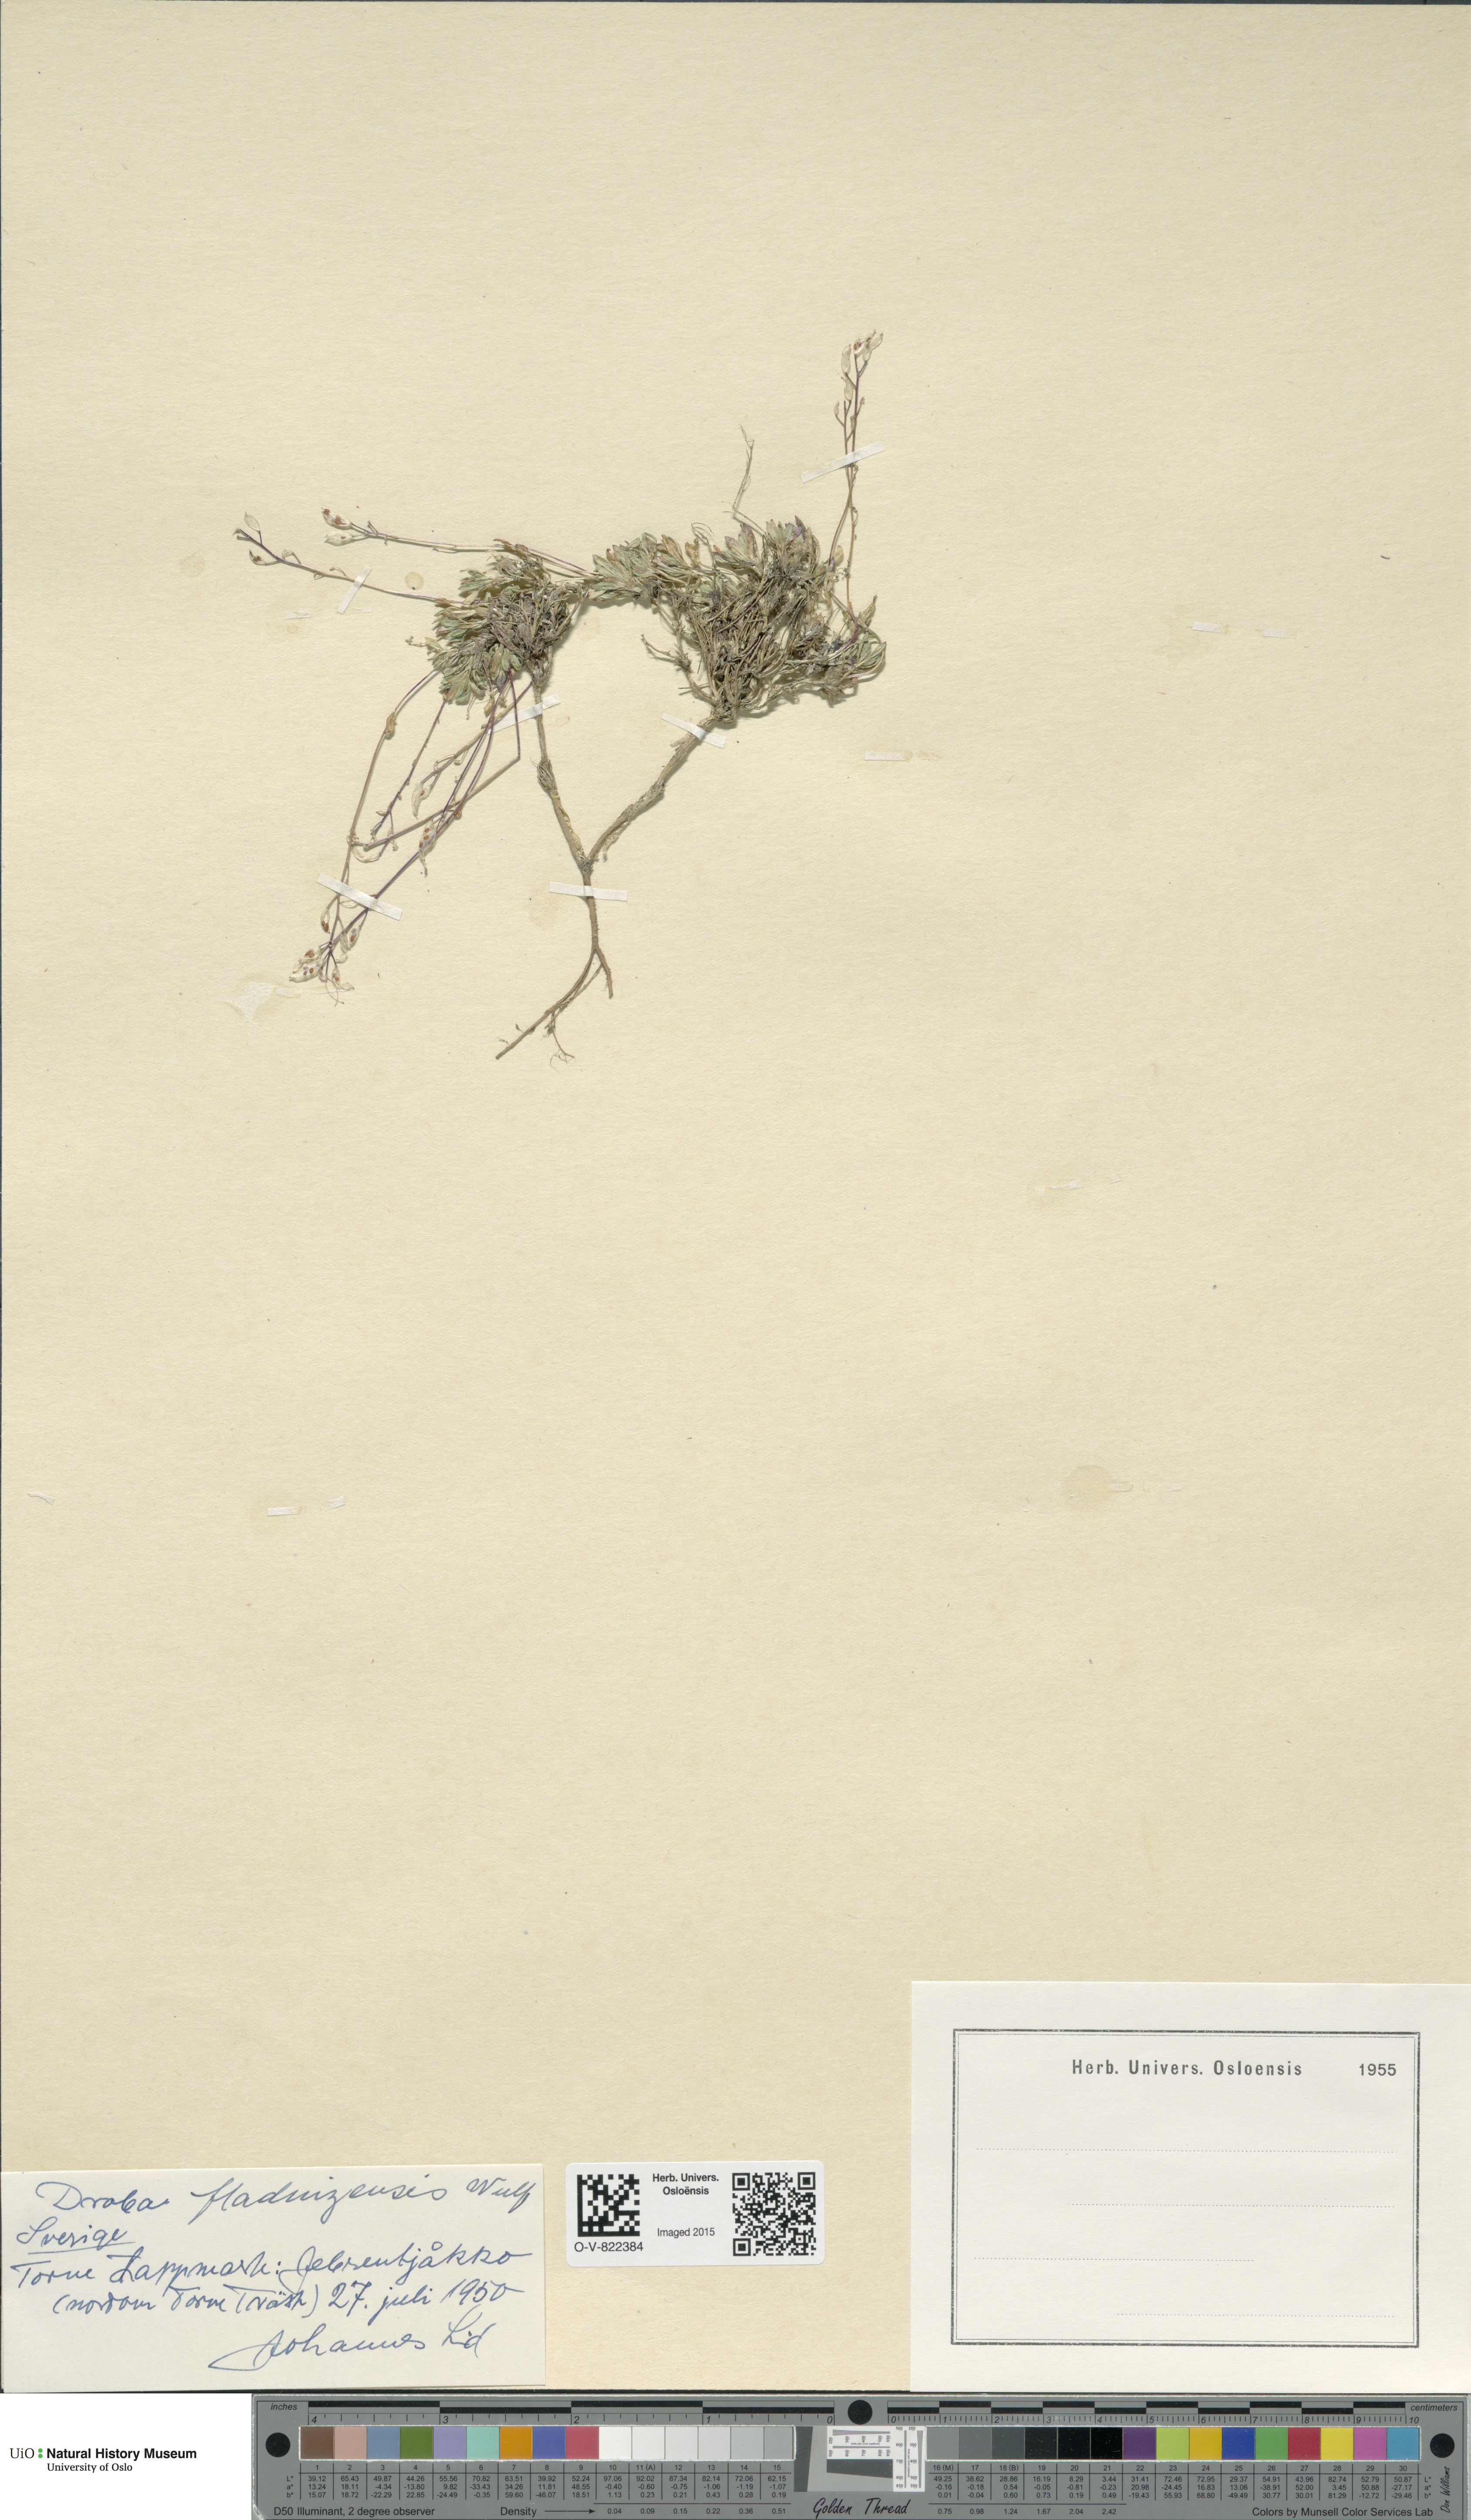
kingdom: Plantae
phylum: Tracheophyta
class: Magnoliopsida
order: Brassicales
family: Brassicaceae
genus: Draba
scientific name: Draba fladnizensis
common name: Austrian draba
